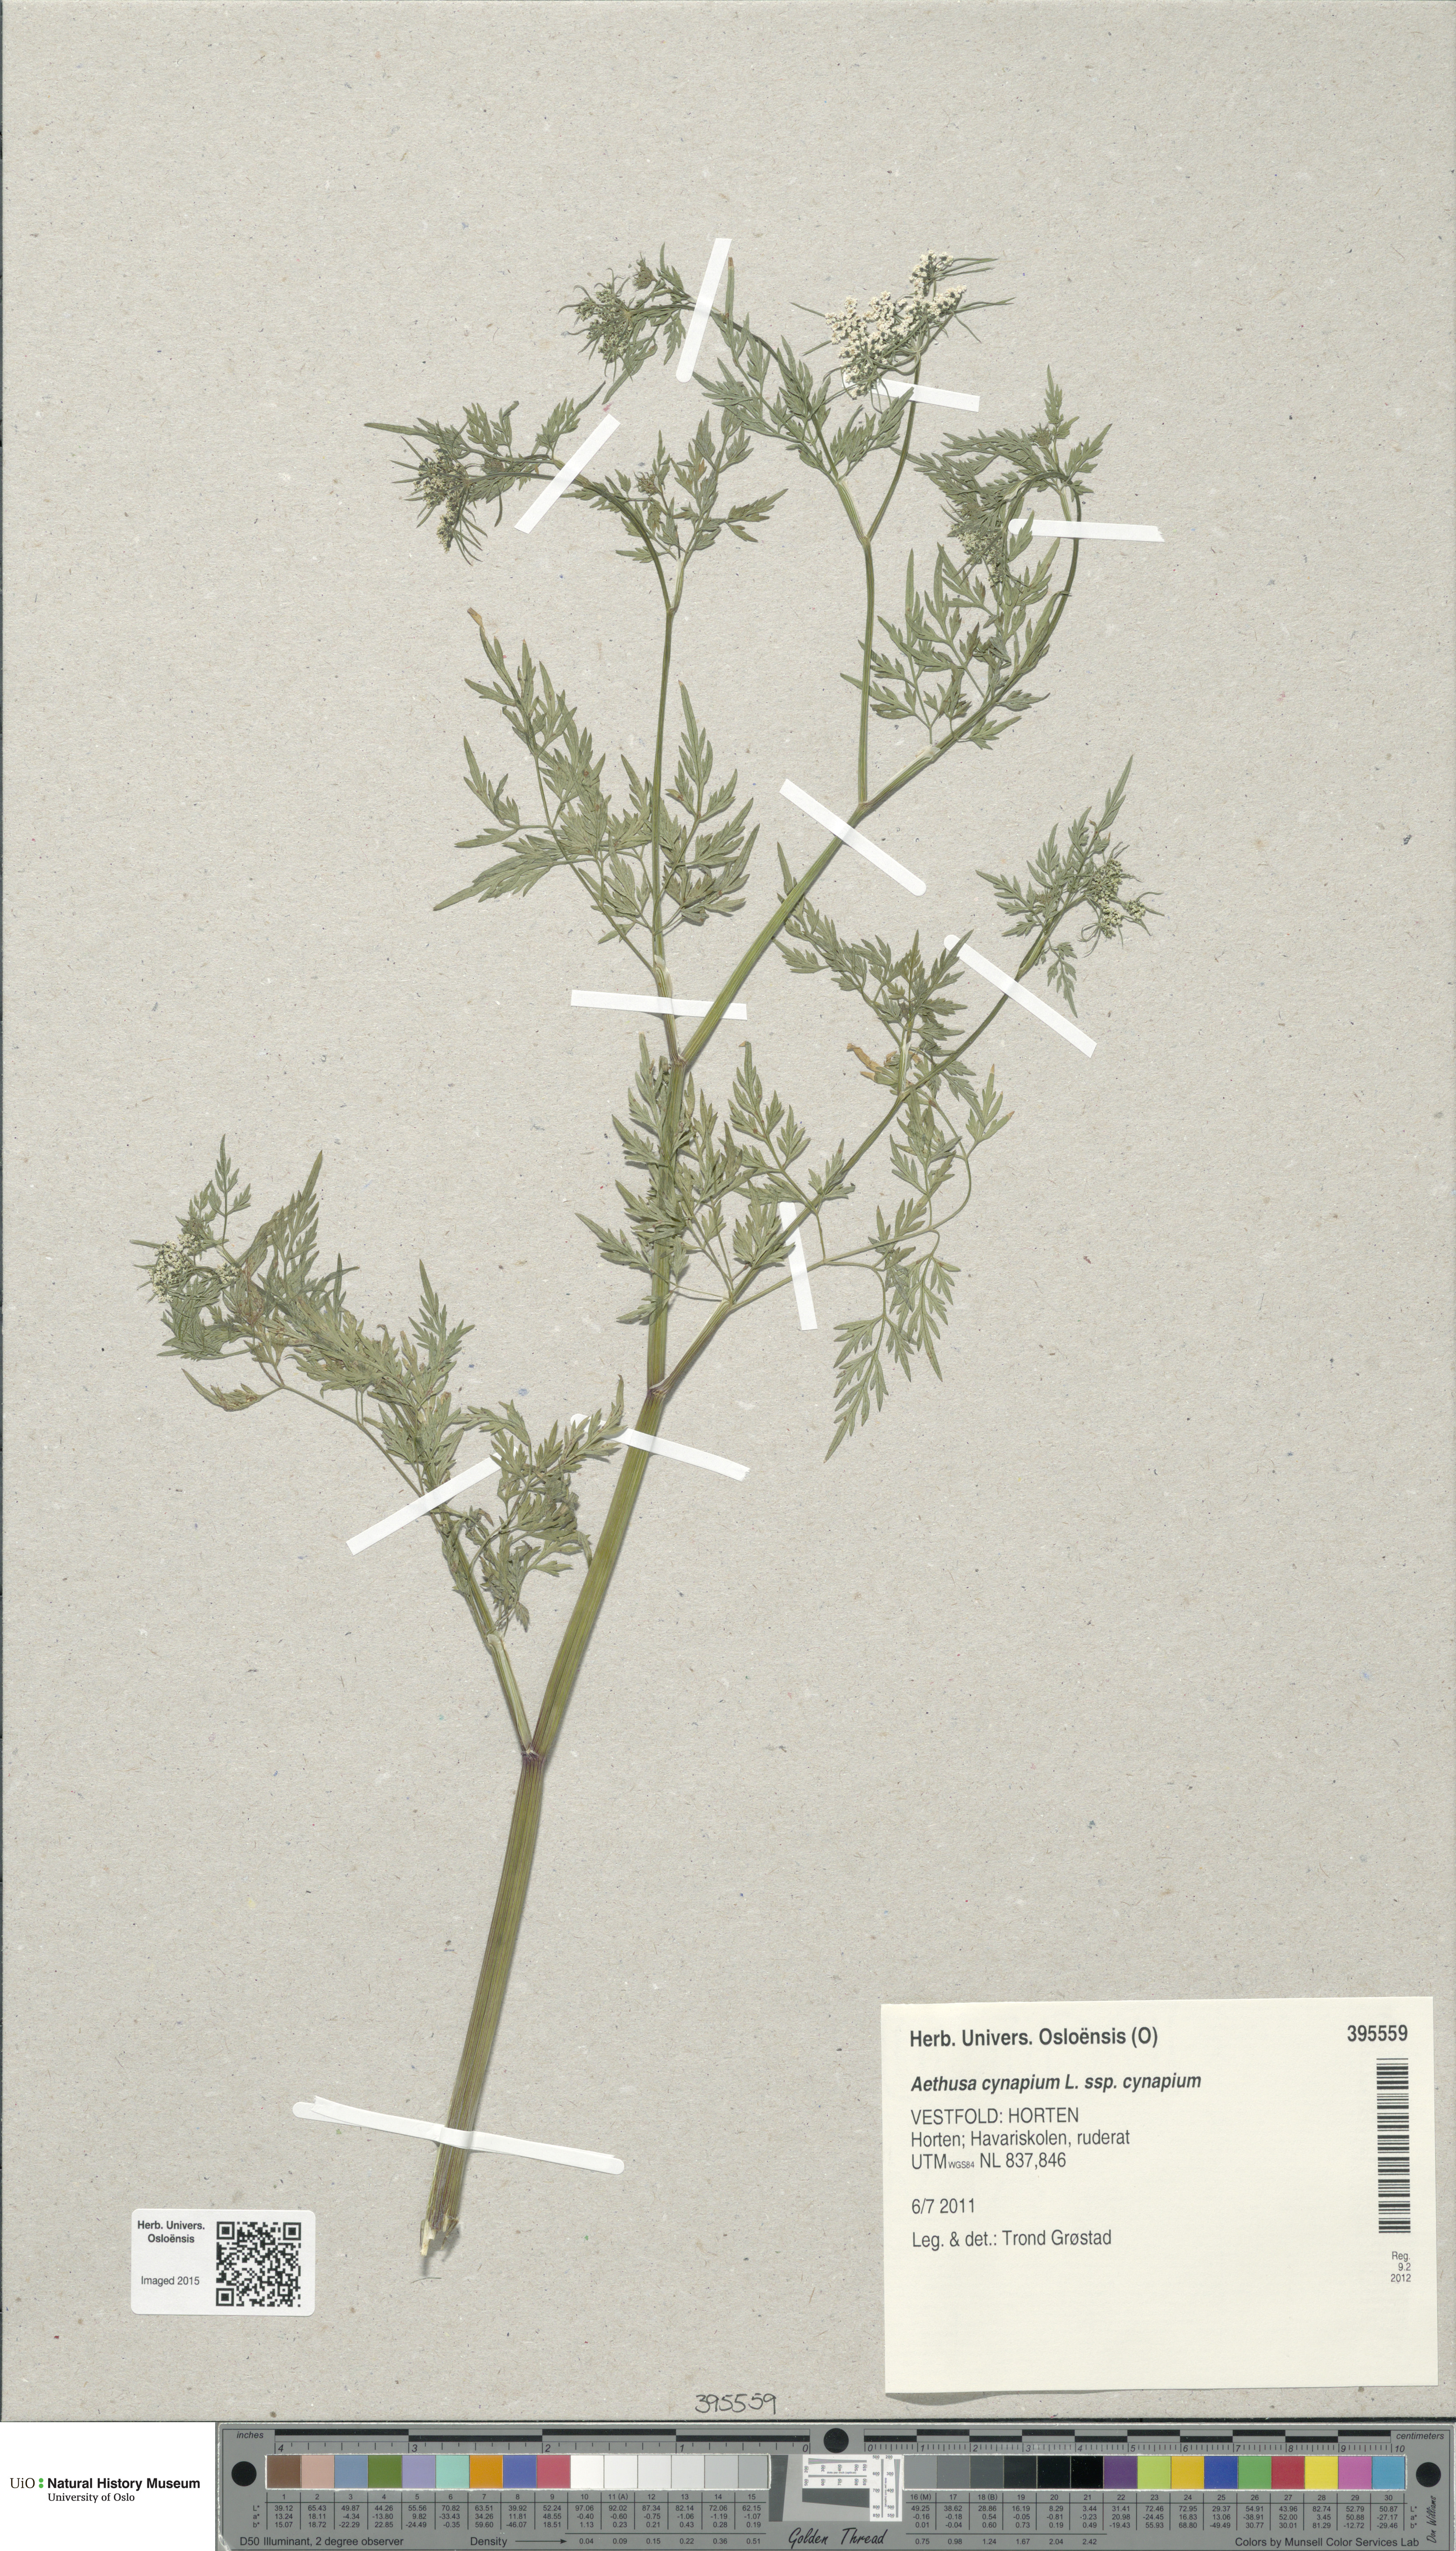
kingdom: Plantae
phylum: Tracheophyta
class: Magnoliopsida
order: Apiales
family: Apiaceae
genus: Aethusa
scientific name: Aethusa cynapium
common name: Fool's parsley
